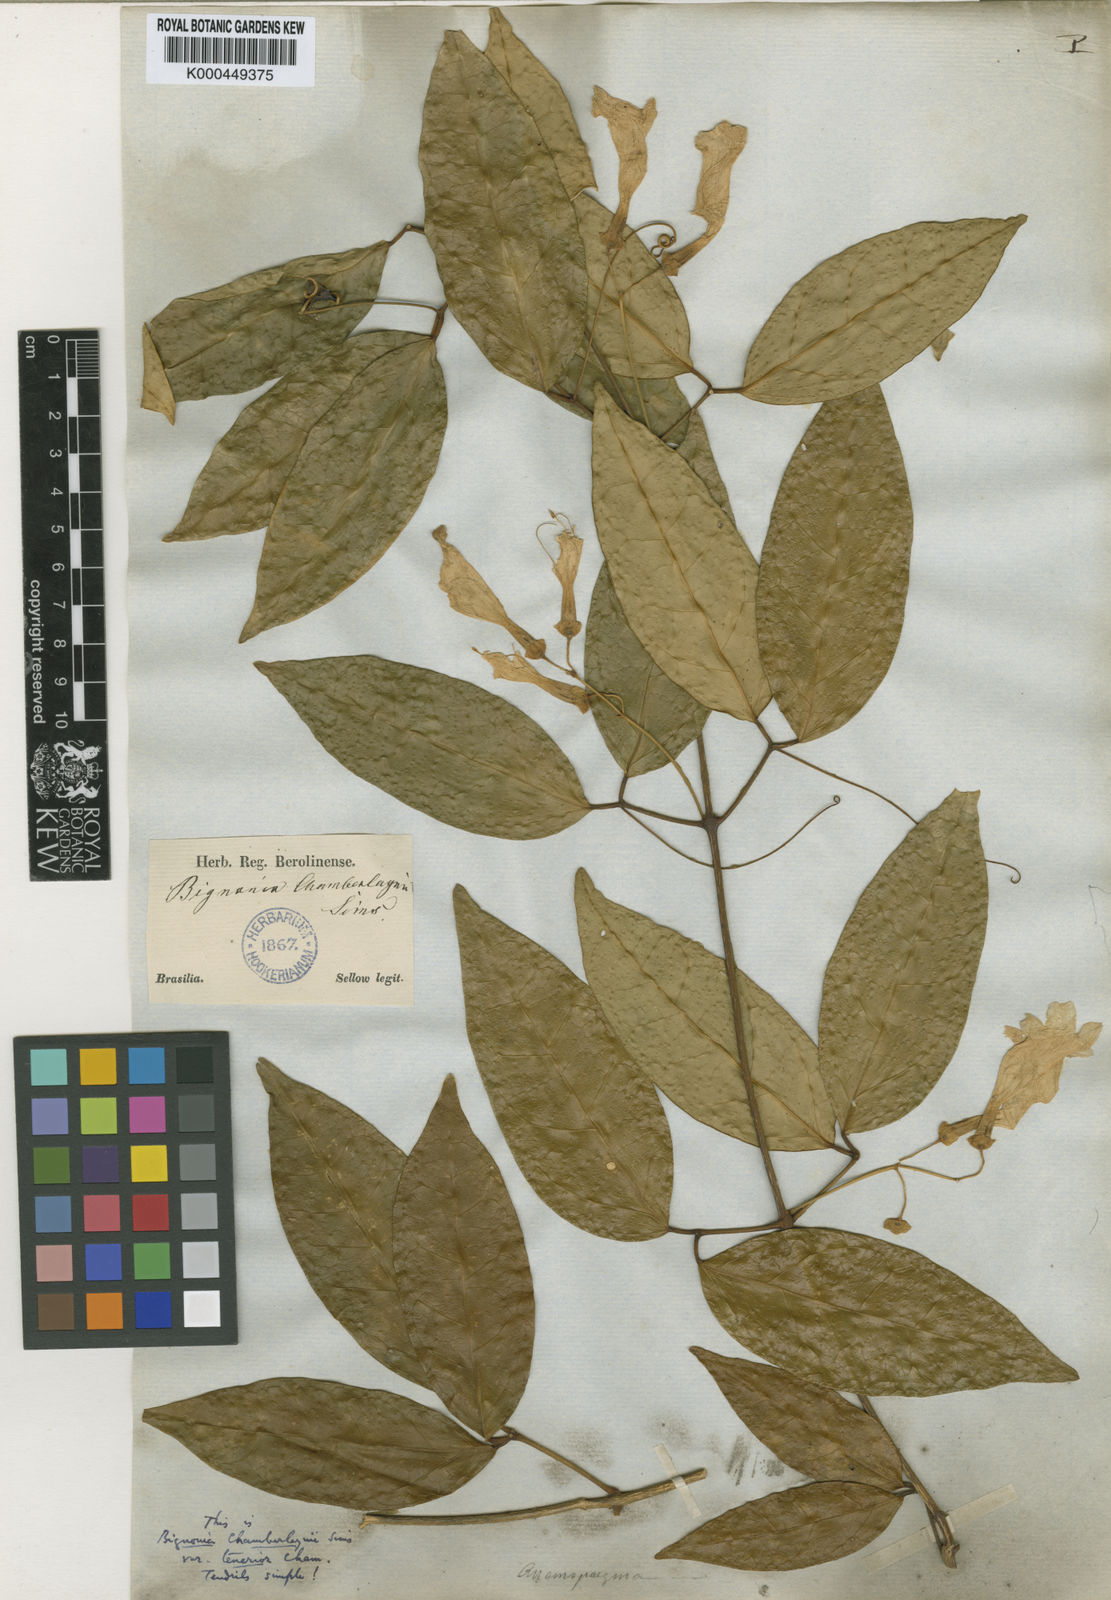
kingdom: Plantae
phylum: Tracheophyta
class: Magnoliopsida
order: Lamiales
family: Bignoniaceae
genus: Anemopaegma
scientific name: Anemopaegma chamberlaynii
